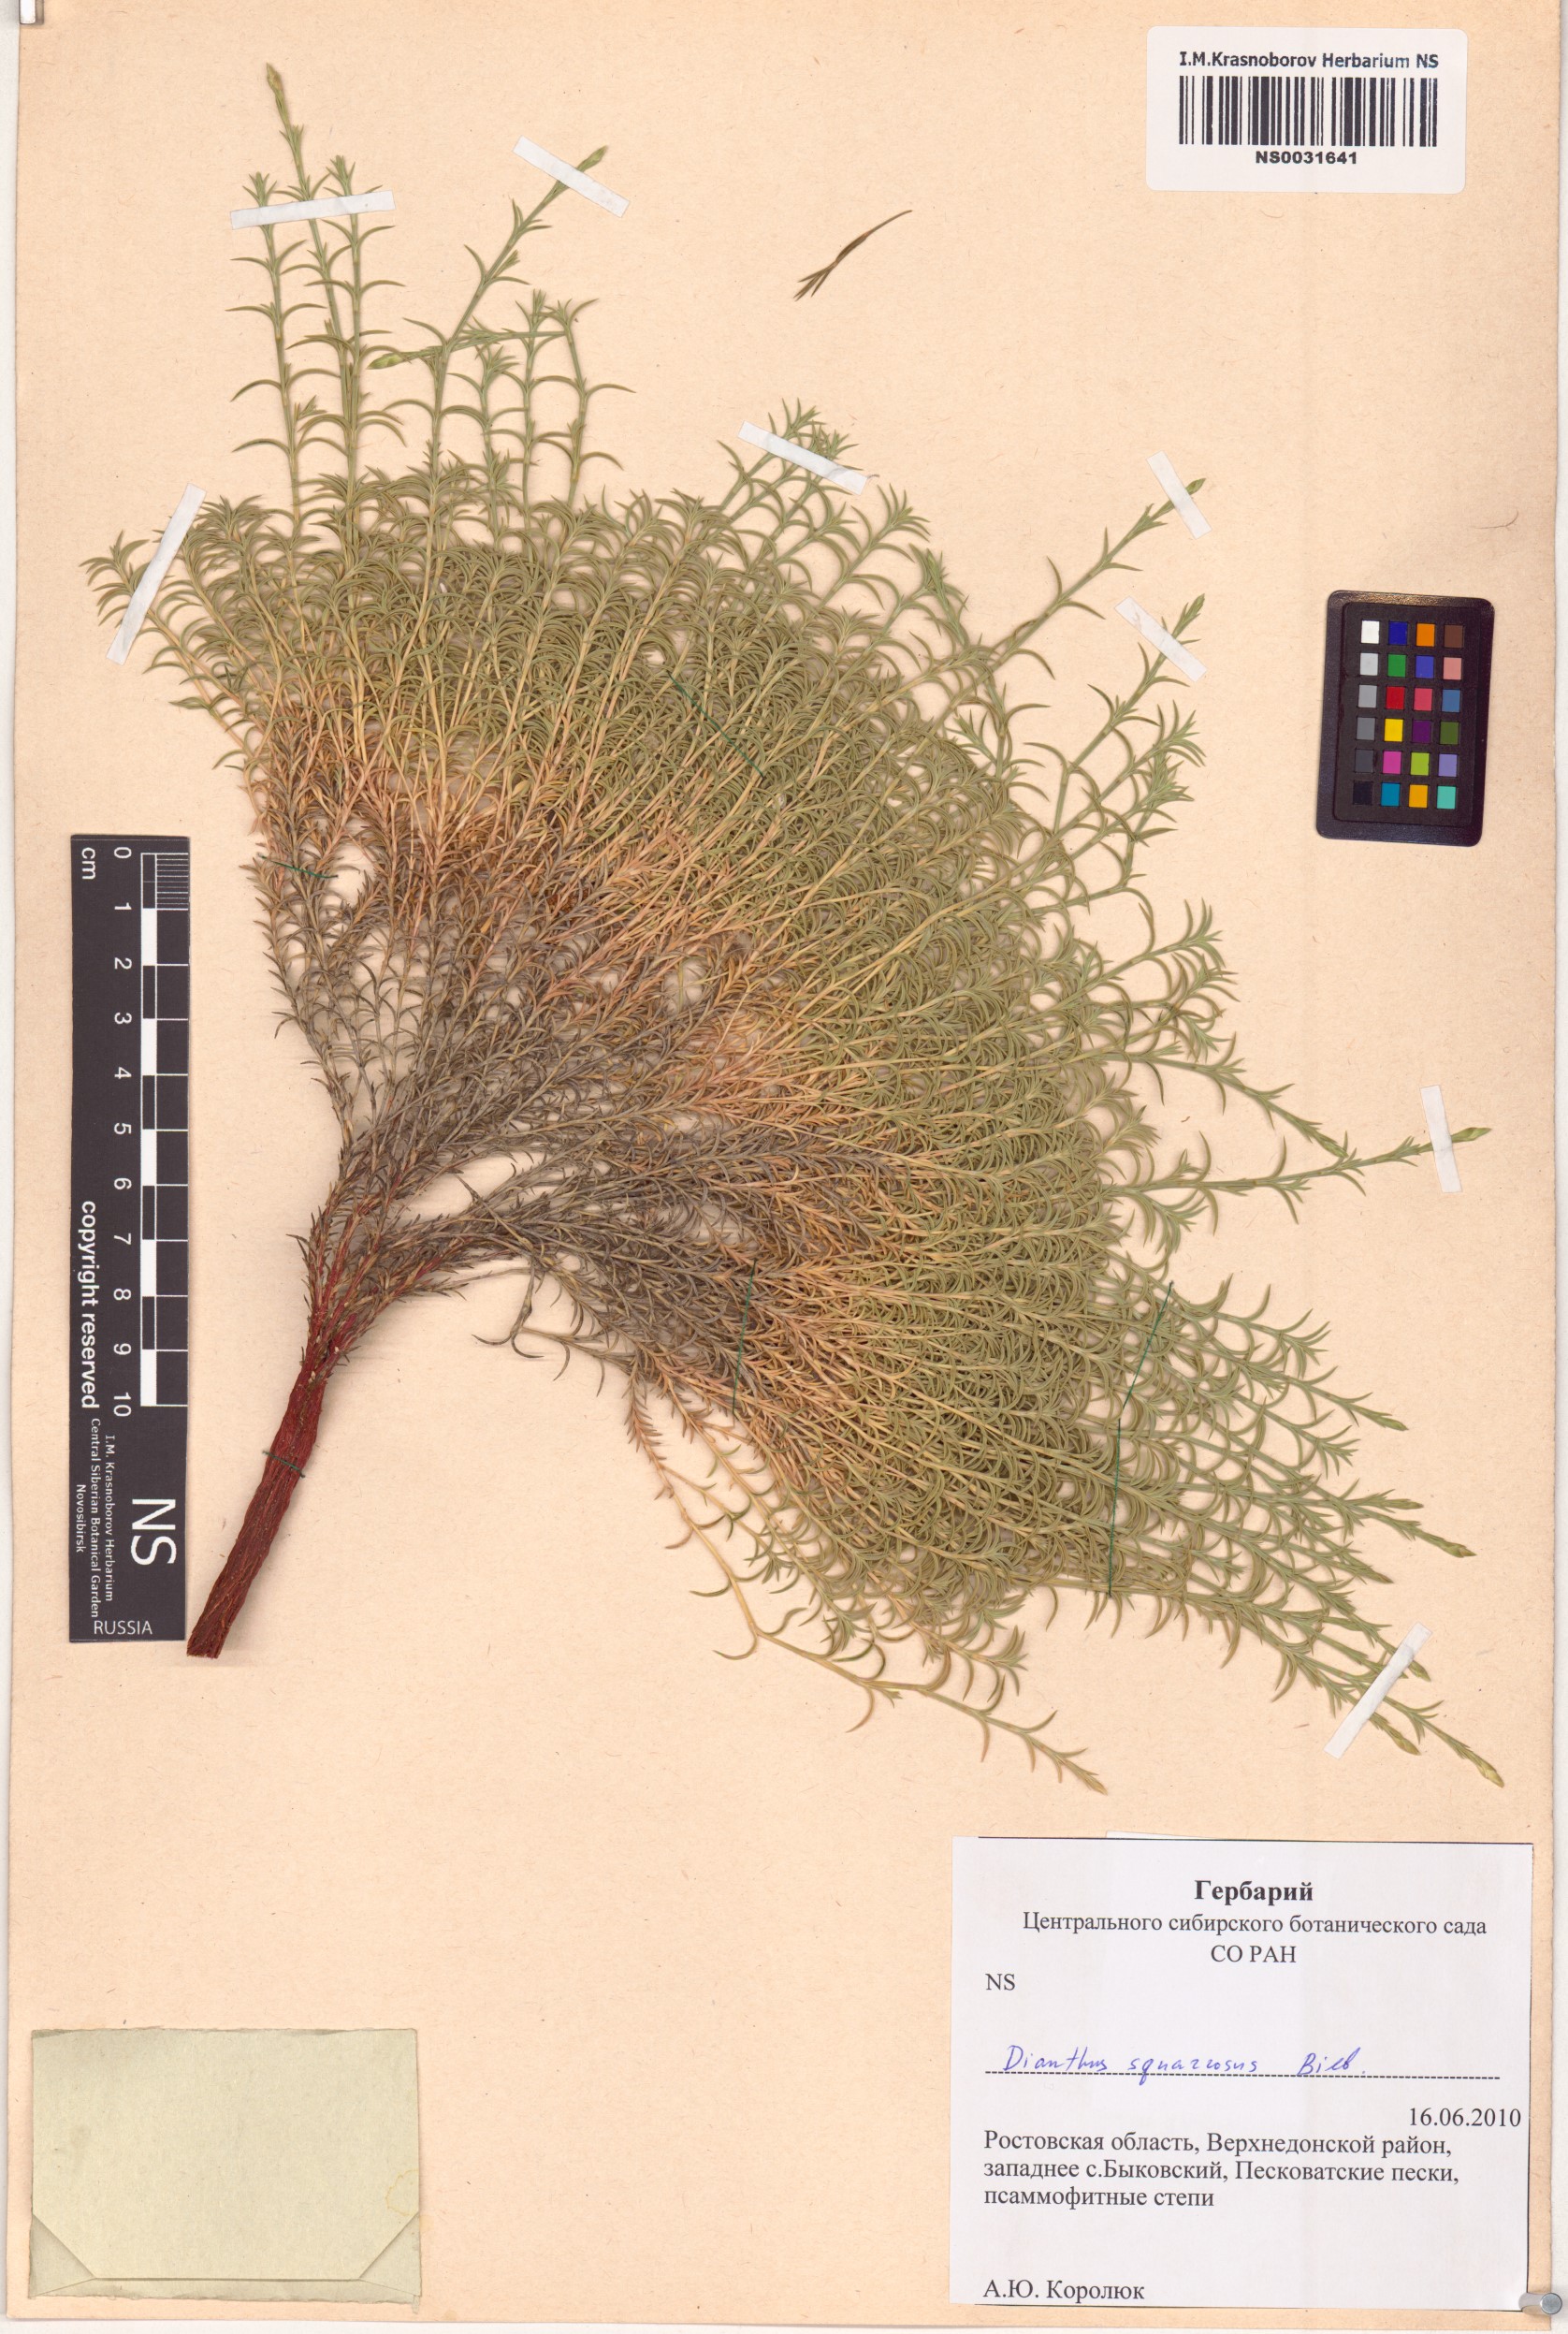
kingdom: Plantae
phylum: Tracheophyta
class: Magnoliopsida
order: Caryophyllales
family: Caryophyllaceae
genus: Dianthus
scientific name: Dianthus squarrosus
